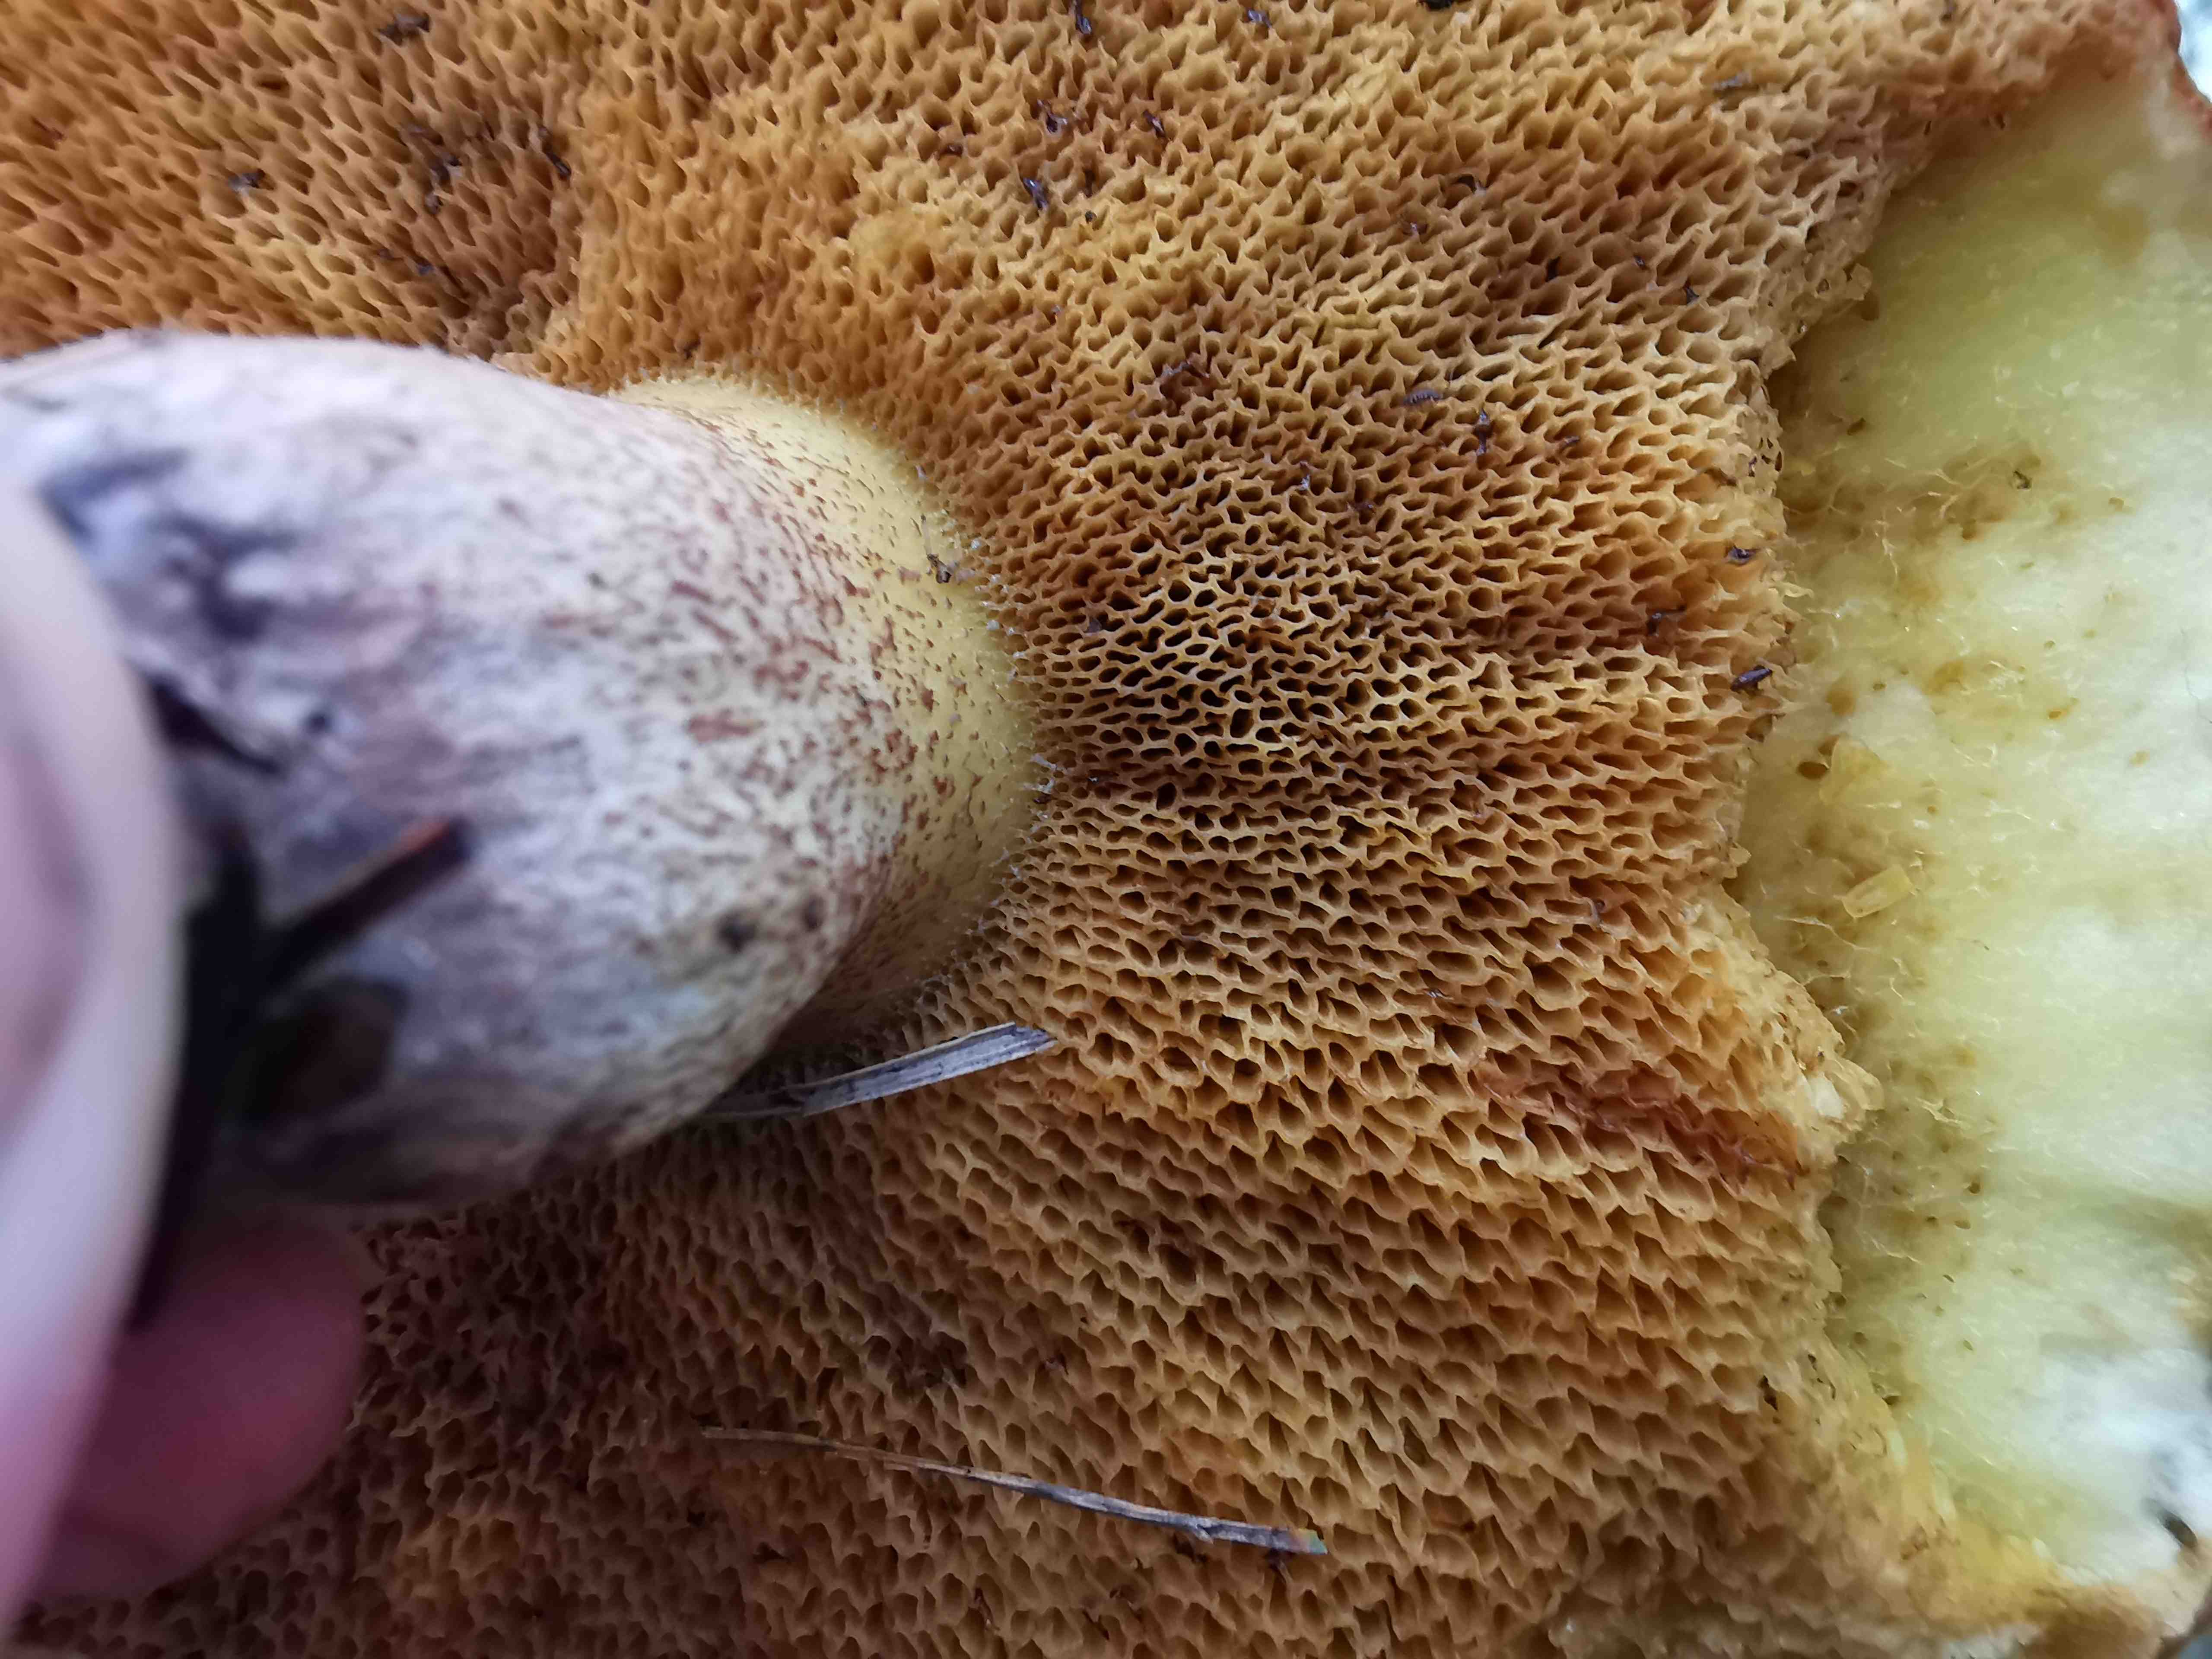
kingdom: Fungi
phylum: Basidiomycota
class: Agaricomycetes
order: Boletales
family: Suillaceae
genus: Suillus
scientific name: Suillus
